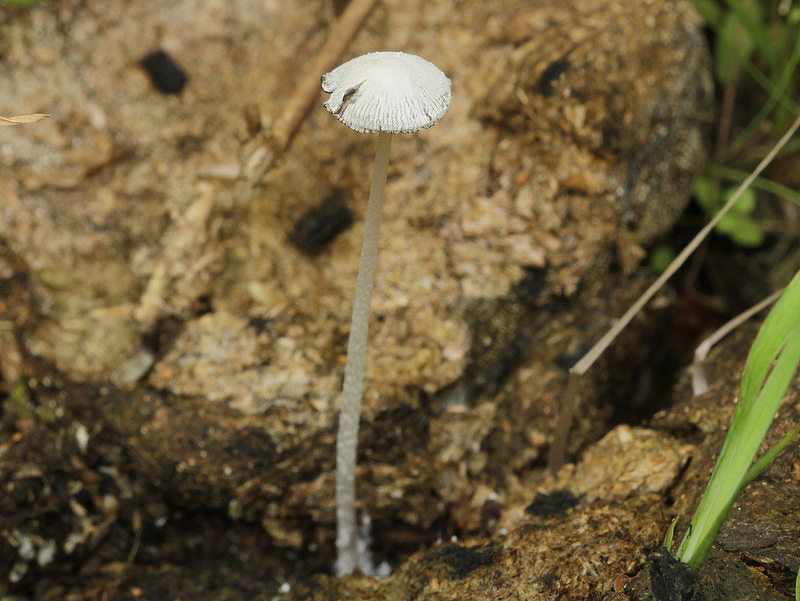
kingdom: Fungi
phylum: Basidiomycota
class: Agaricomycetes
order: Agaricales
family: Psathyrellaceae
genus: Coprinopsis
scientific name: Coprinopsis nivea
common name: snehvid blækhat
